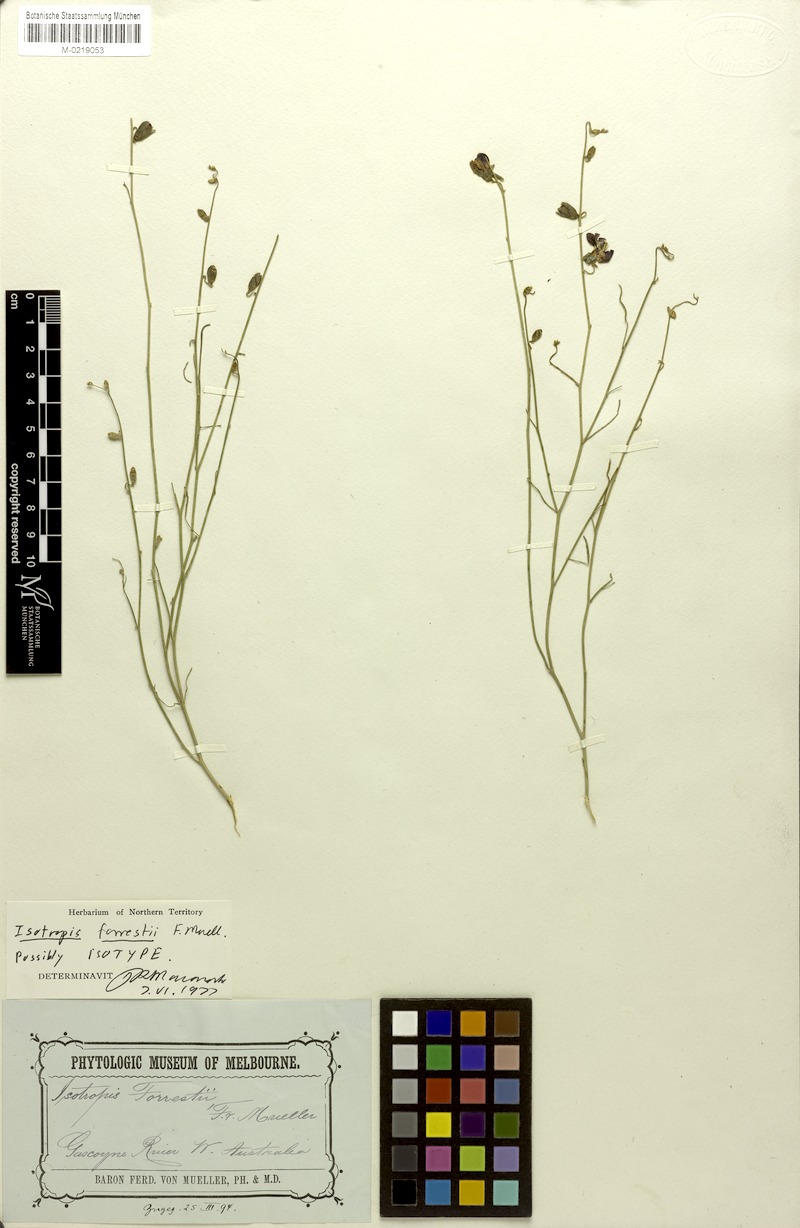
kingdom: Plantae
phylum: Tracheophyta
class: Magnoliopsida
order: Fabales
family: Fabaceae
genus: Isotropis
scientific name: Isotropis forrestii
